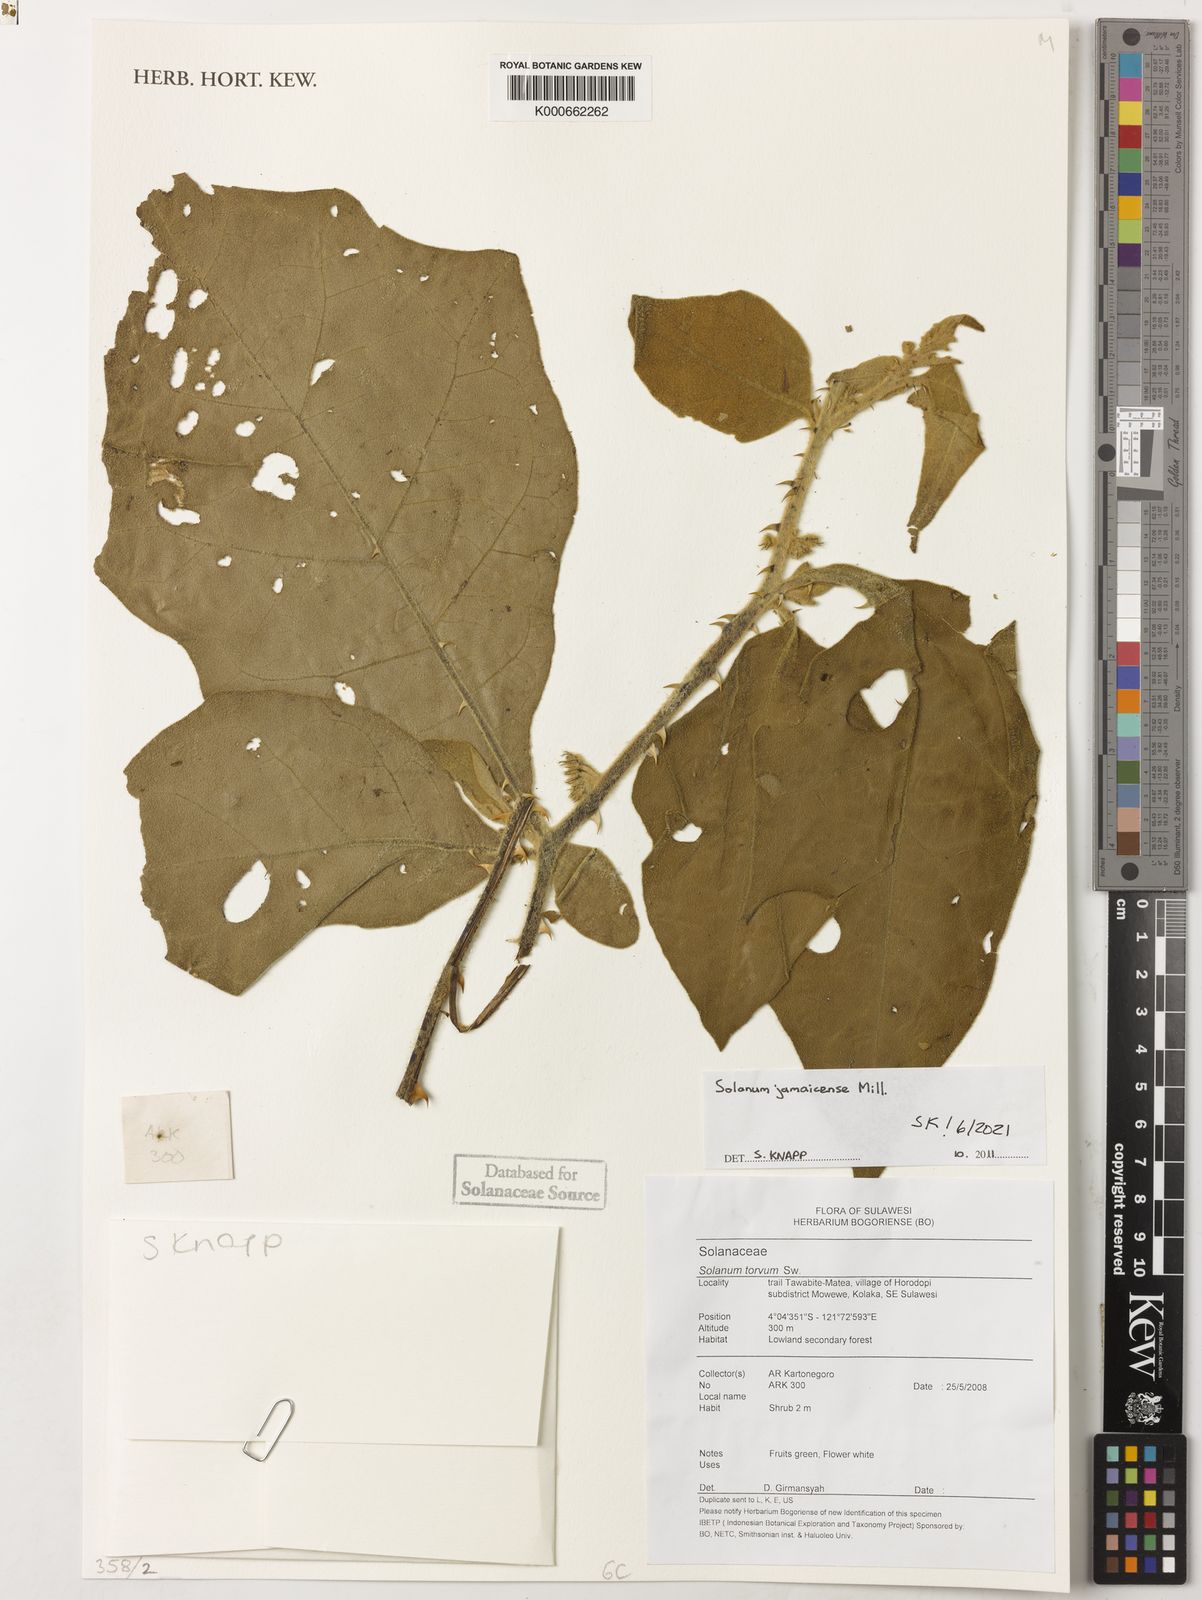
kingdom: Plantae
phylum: Tracheophyta
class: Magnoliopsida
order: Solanales
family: Solanaceae
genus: Solanum
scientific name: Solanum jamaicense
